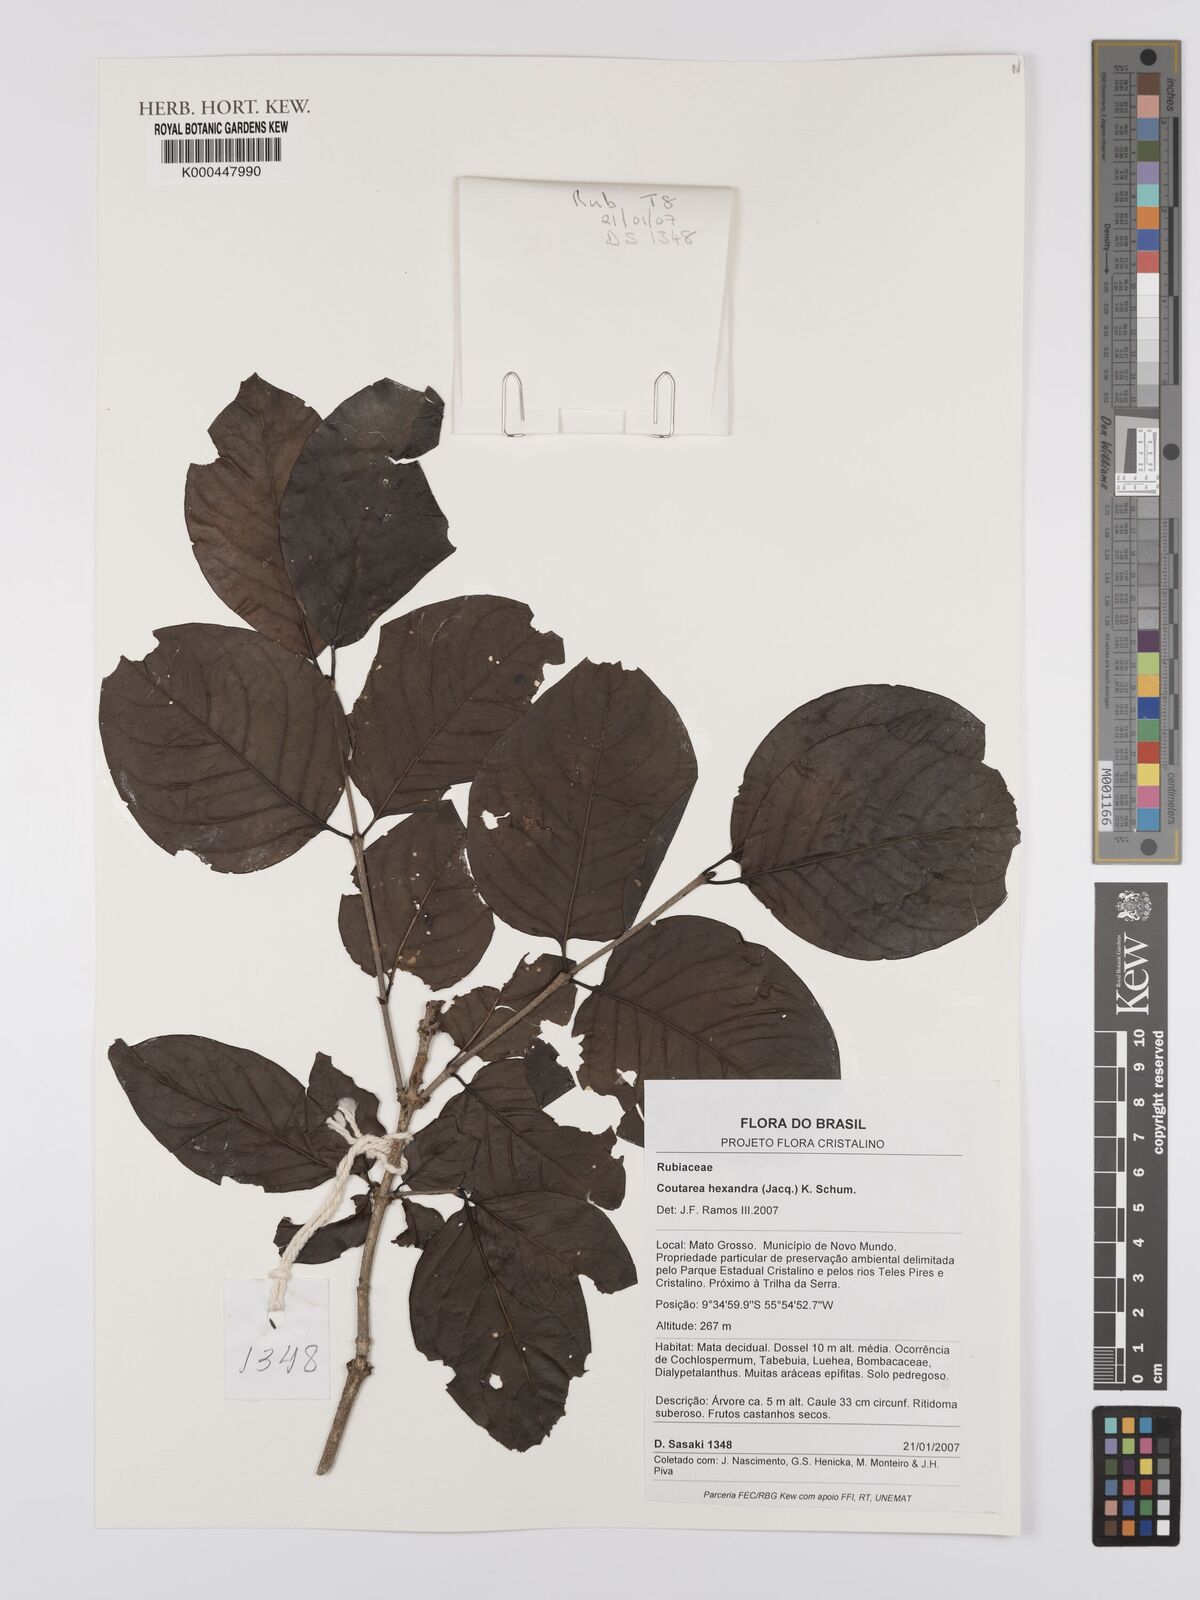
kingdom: Plantae
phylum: Tracheophyta
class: Magnoliopsida
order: Gentianales
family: Rubiaceae
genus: Coutarea
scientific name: Coutarea hexandra
